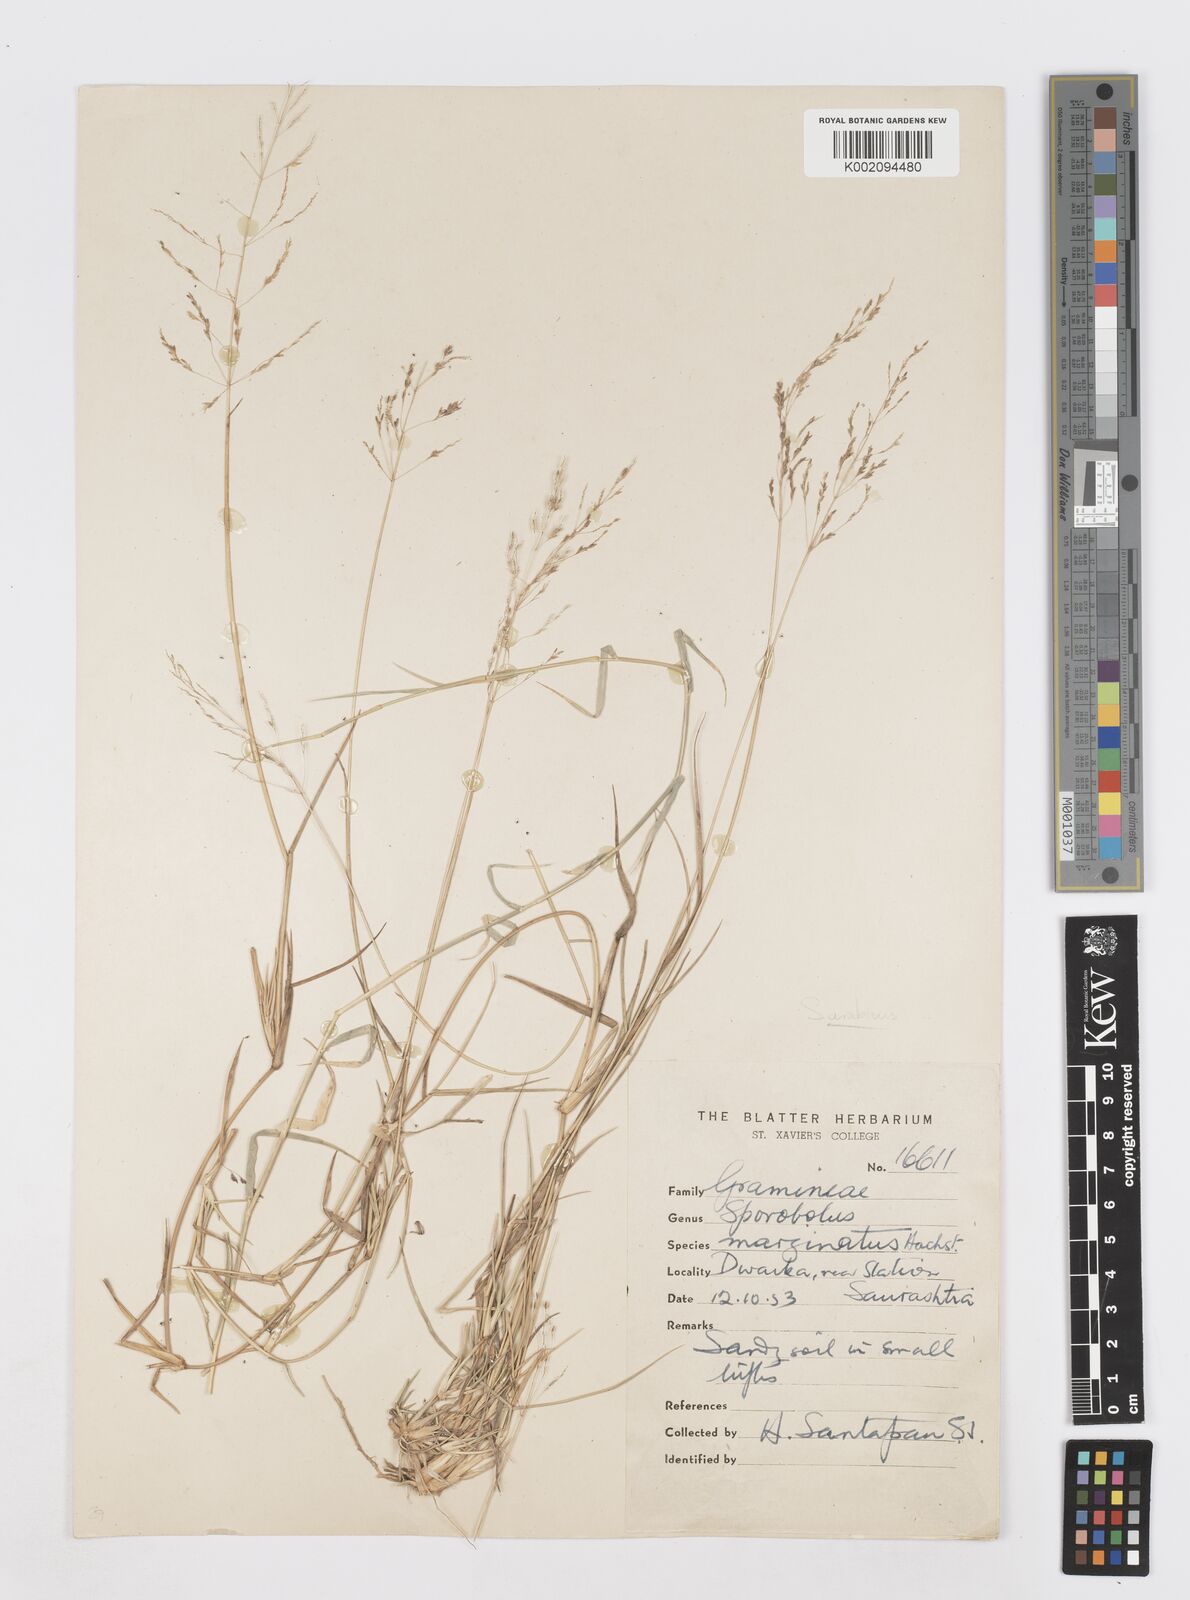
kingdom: Plantae
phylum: Tracheophyta
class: Liliopsida
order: Poales
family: Poaceae
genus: Sporobolus
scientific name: Sporobolus ioclados
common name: Pan dropseed
